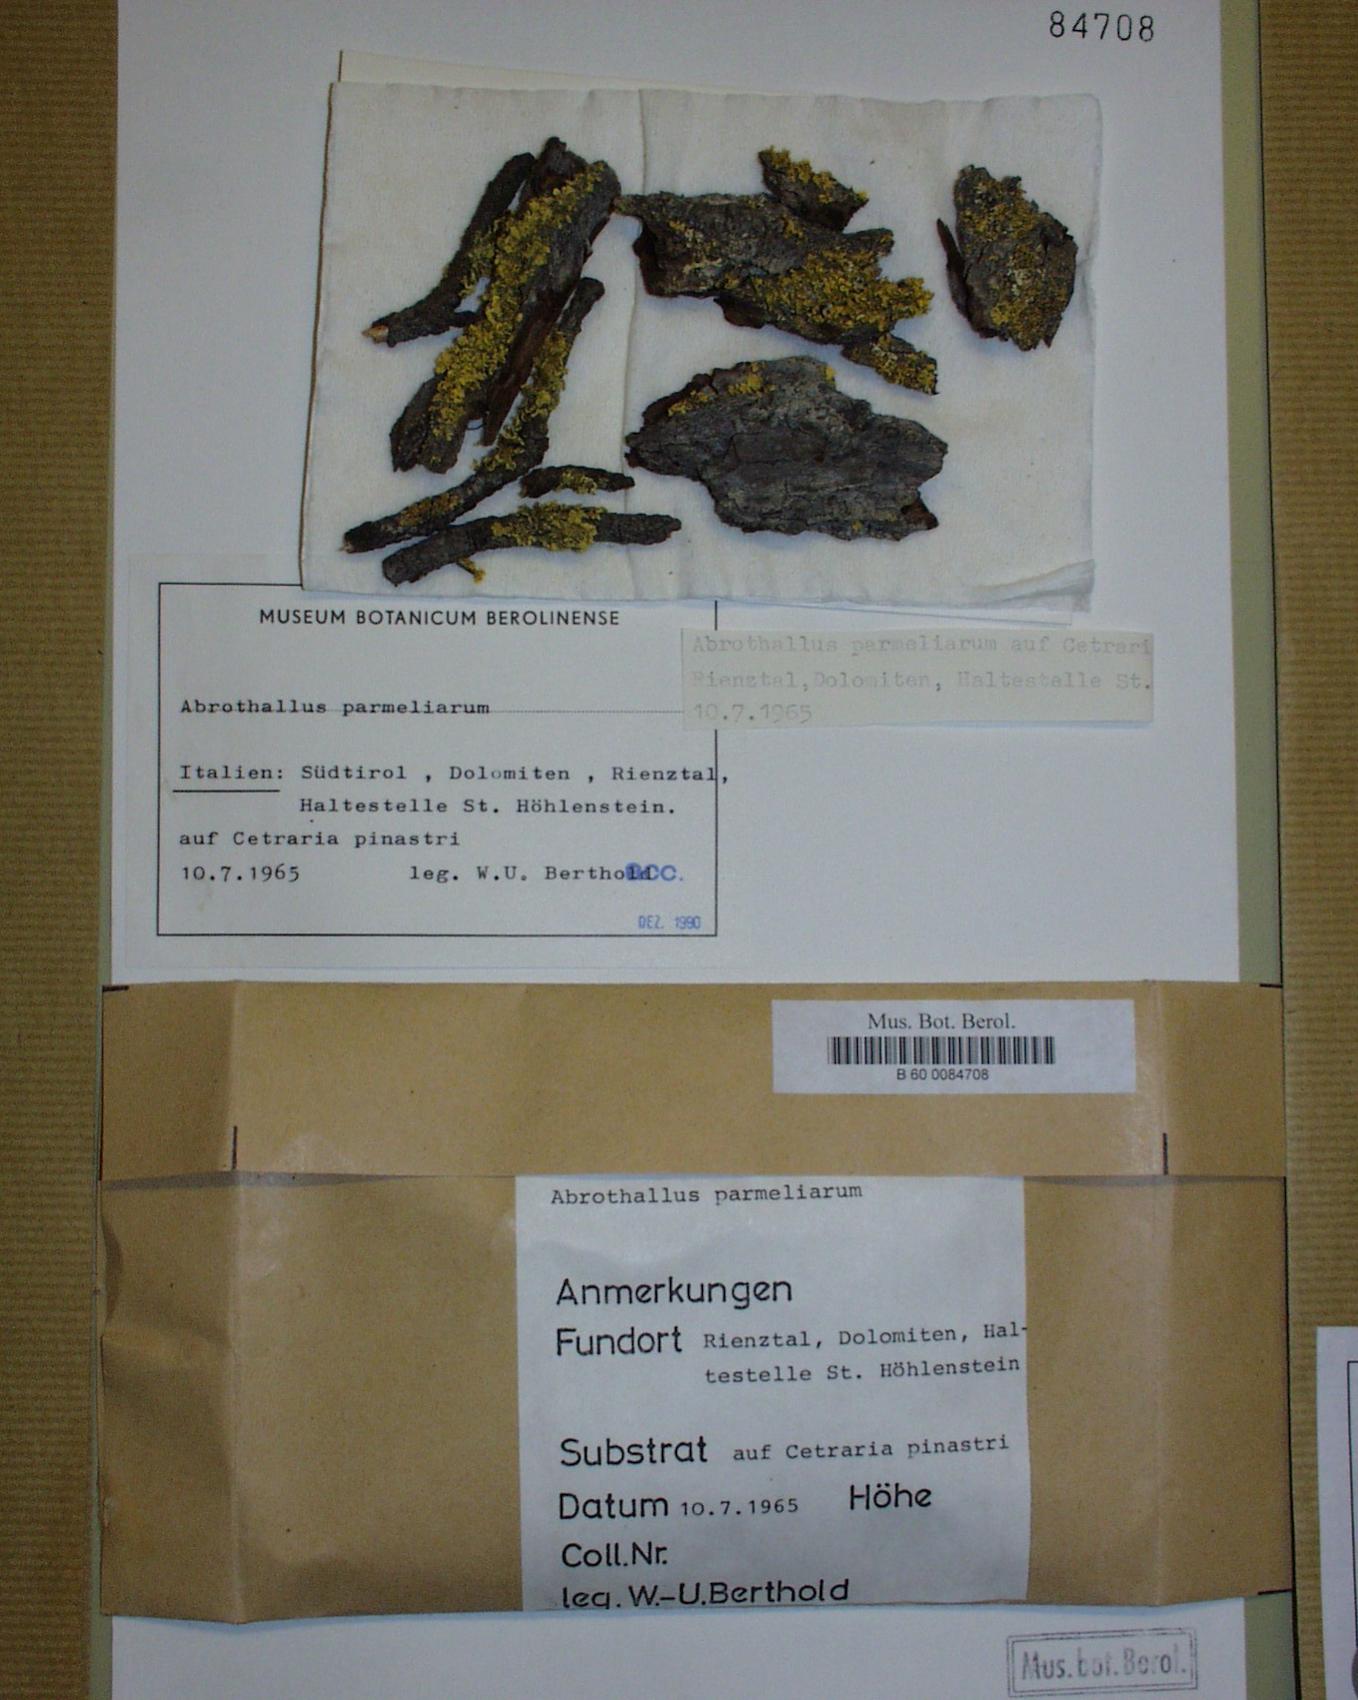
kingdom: Fungi
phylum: Ascomycota
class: Dothideomycetes
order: Abrothallales
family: Abrothallaceae
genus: Abrothallus
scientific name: Abrothallus parmeliarum
